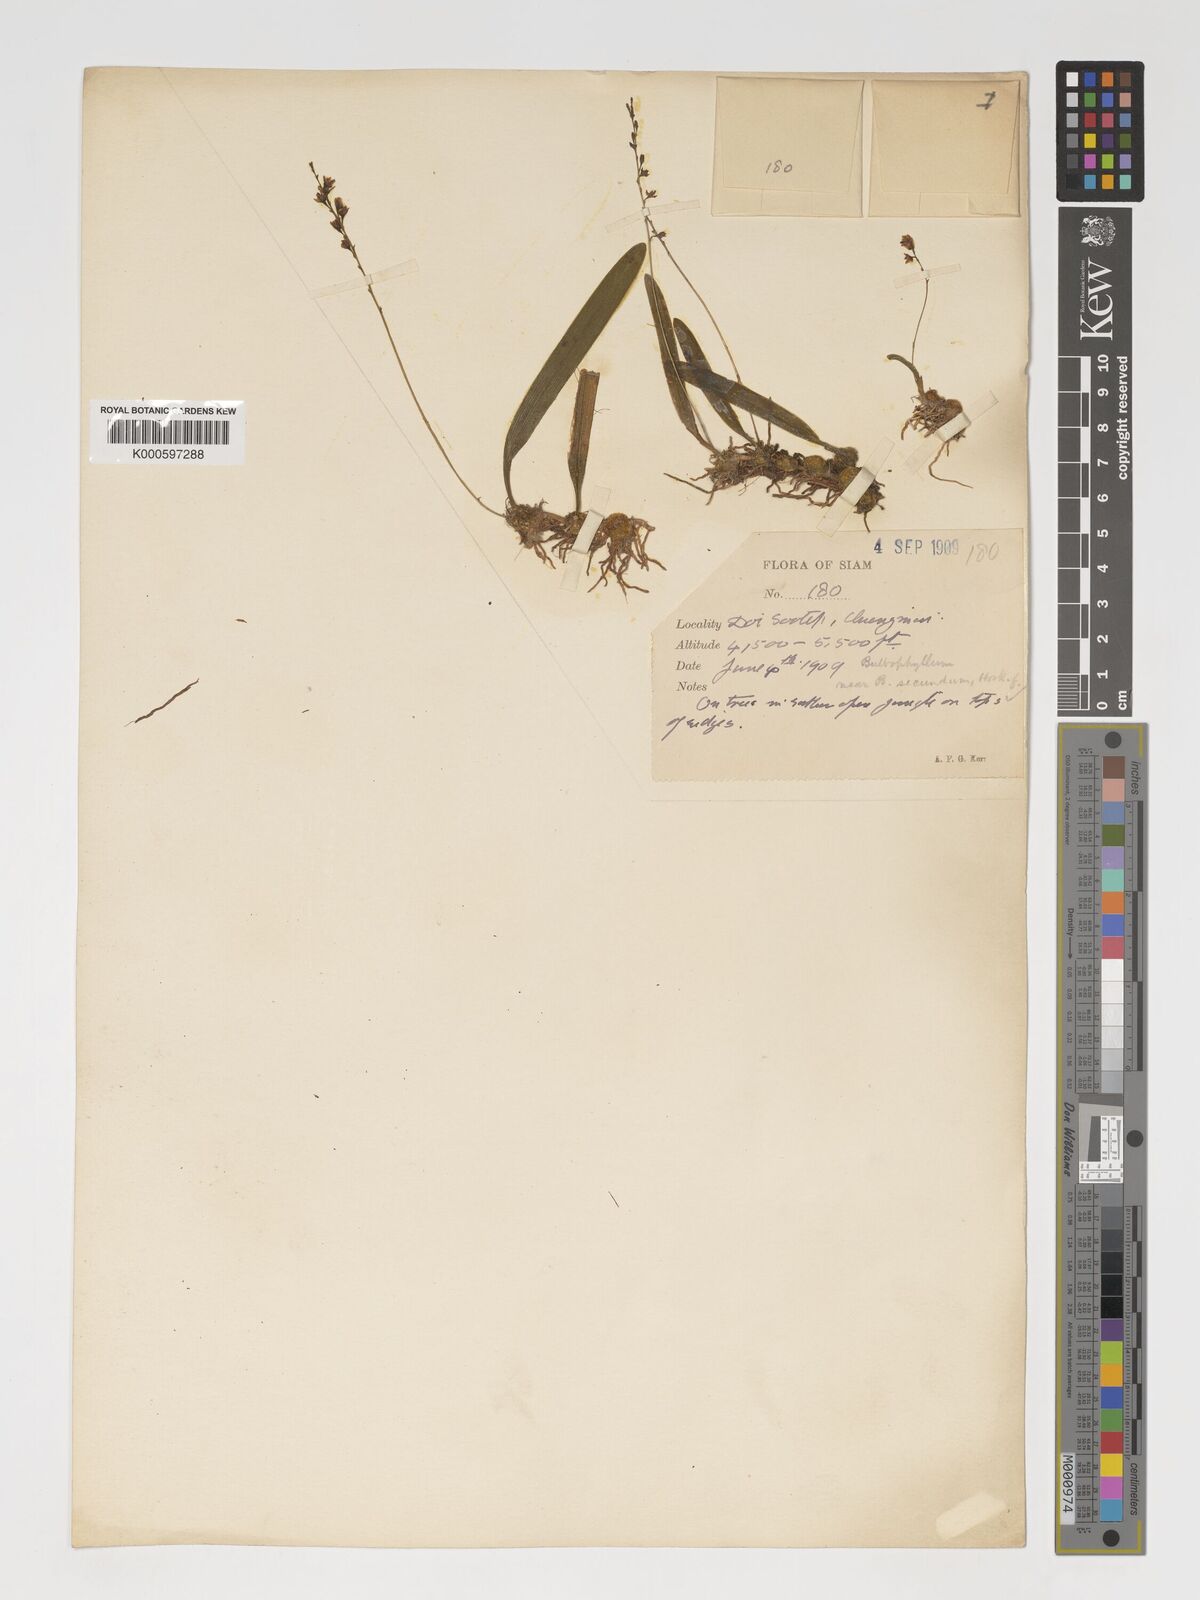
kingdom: Plantae
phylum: Tracheophyta
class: Liliopsida
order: Asparagales
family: Orchidaceae
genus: Bulbophyllum
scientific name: Bulbophyllum secundum
